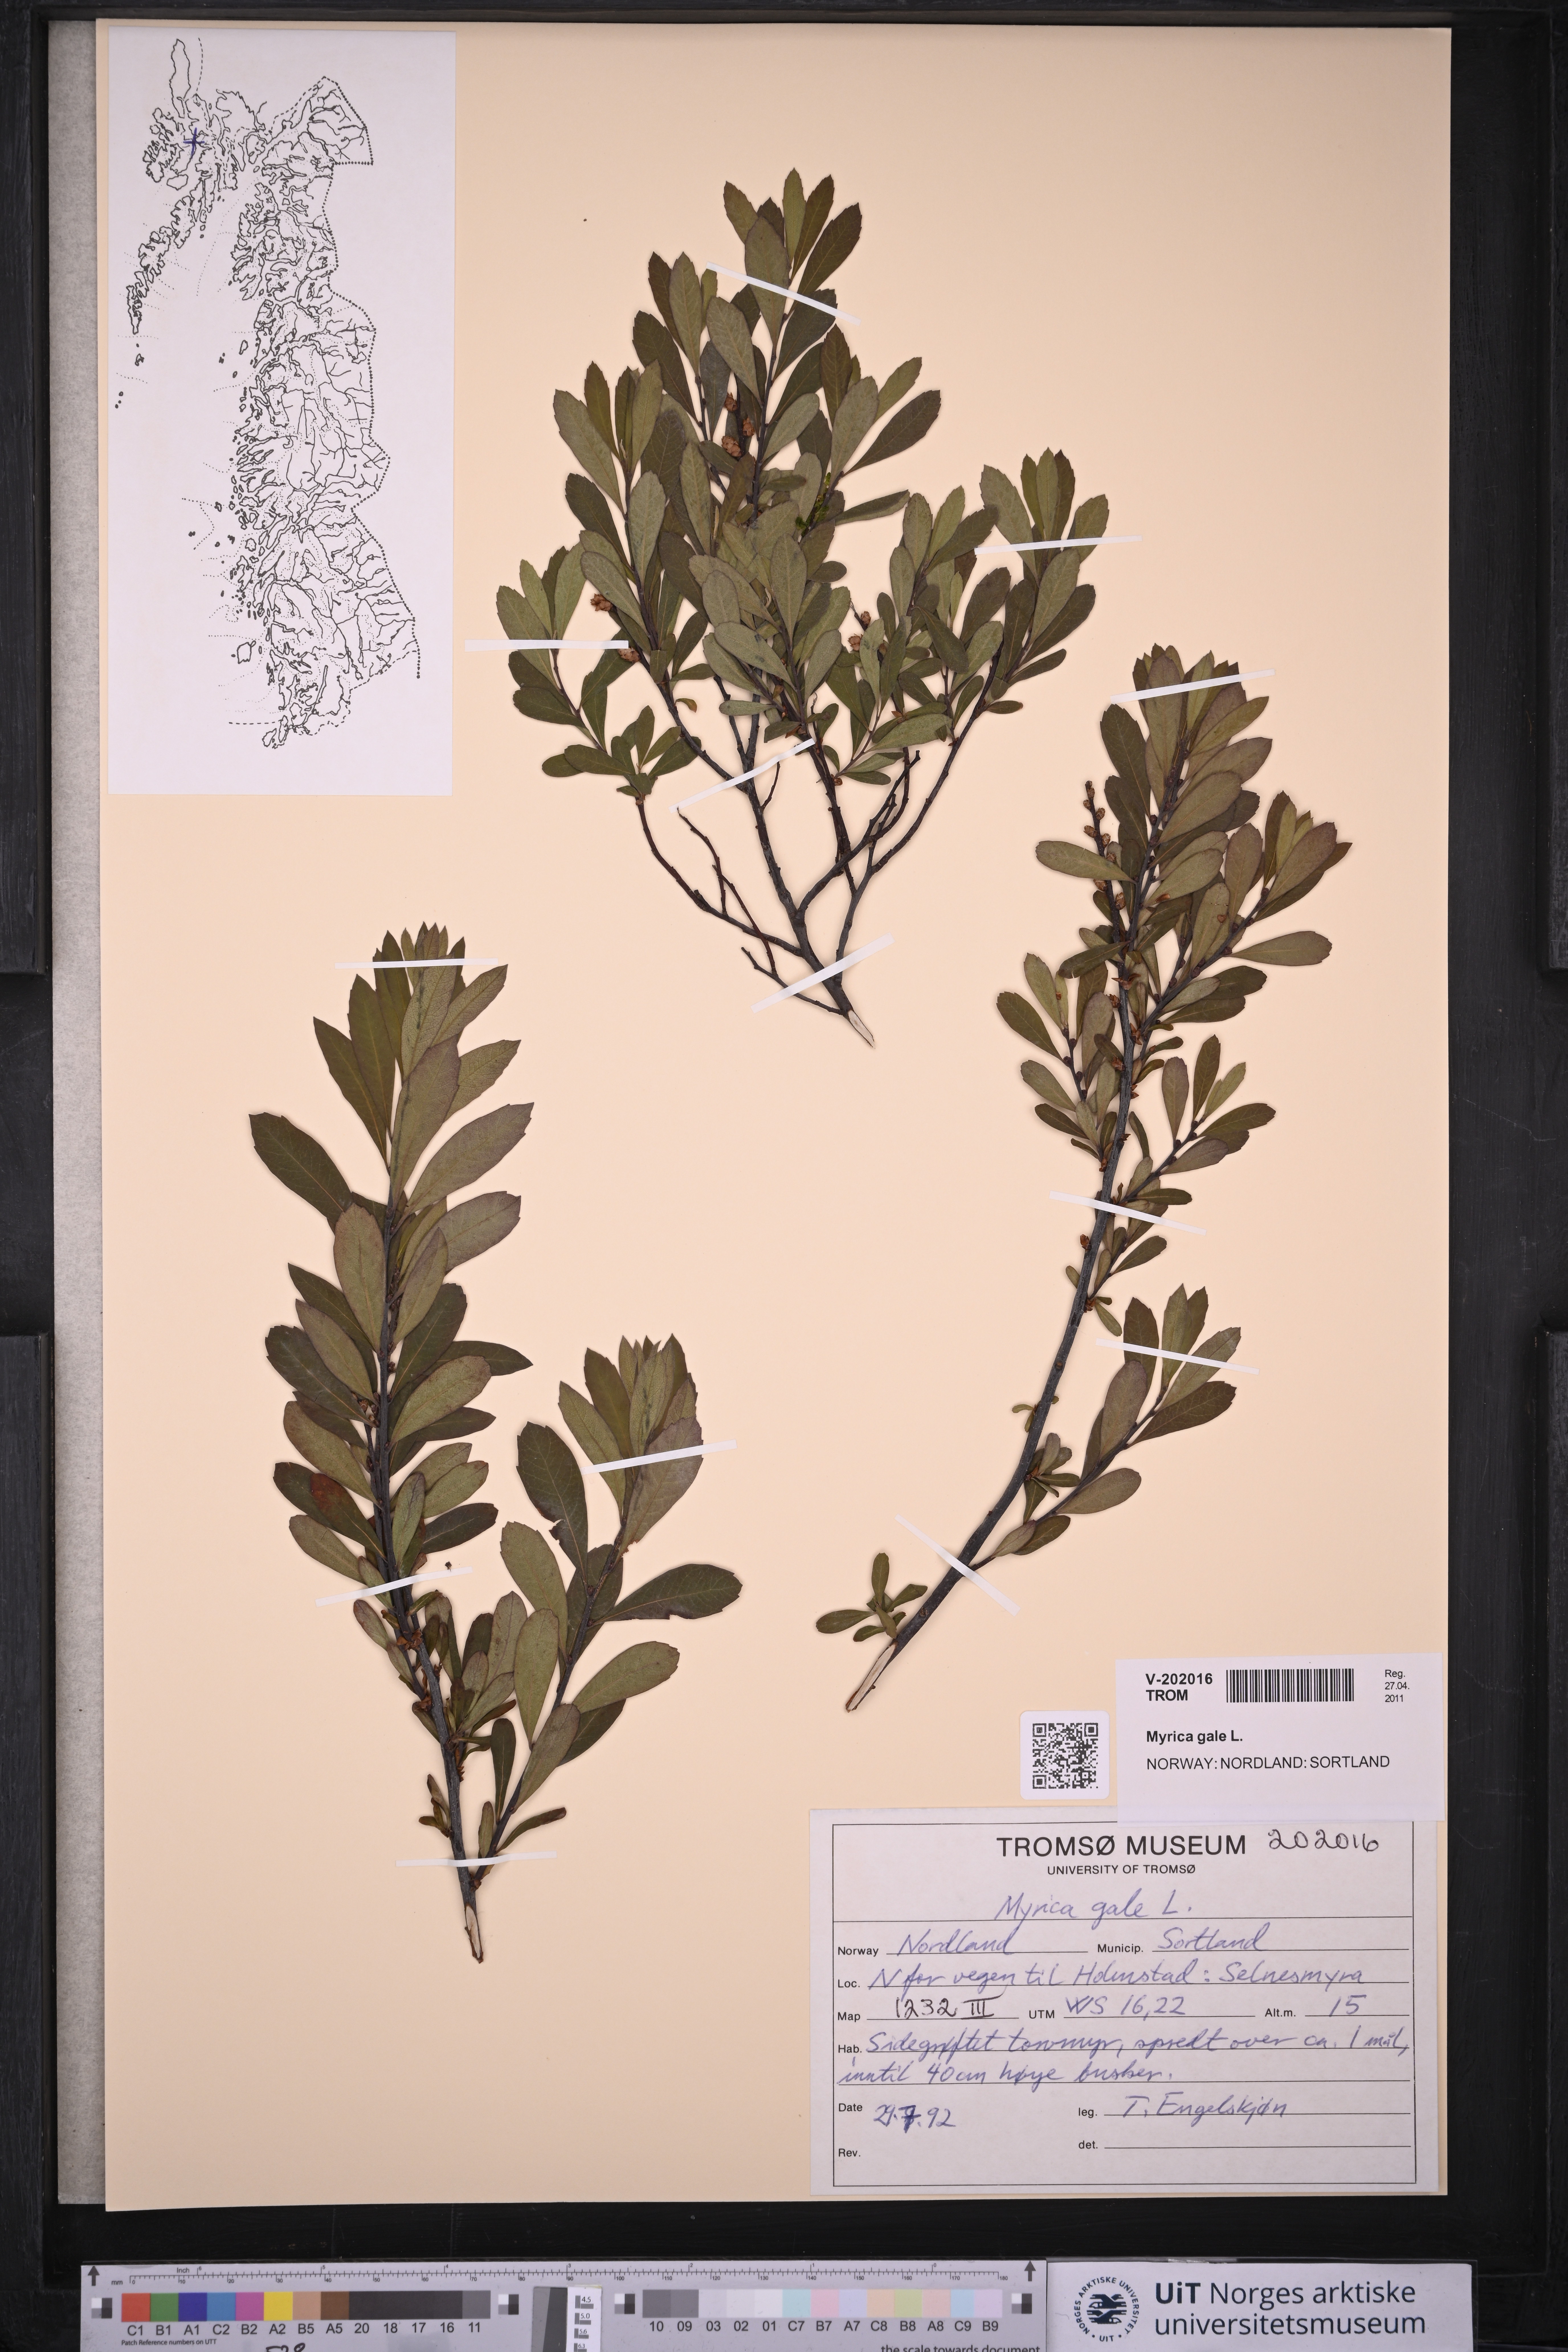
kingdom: Plantae
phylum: Tracheophyta
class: Magnoliopsida
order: Fagales
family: Myricaceae
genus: Myrica
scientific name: Myrica gale
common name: Sweet gale
